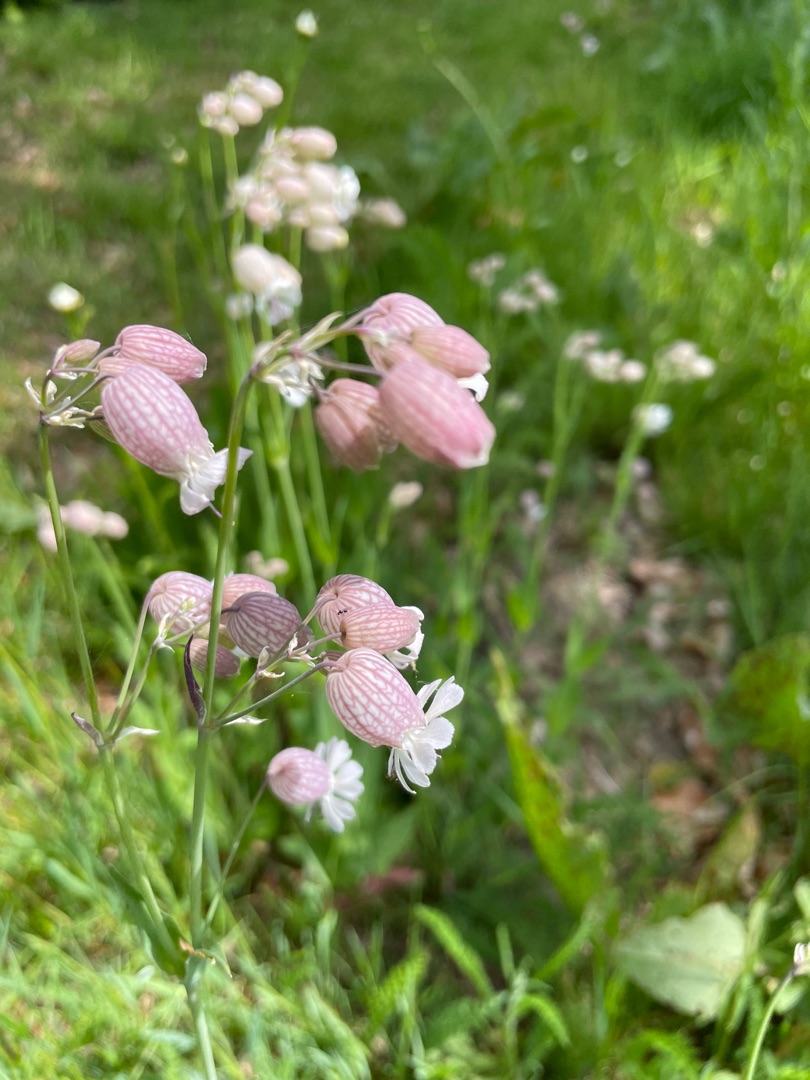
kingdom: Plantae
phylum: Tracheophyta
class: Magnoliopsida
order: Caryophyllales
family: Caryophyllaceae
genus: Silene
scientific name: Silene vulgaris
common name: Blæresmælde
